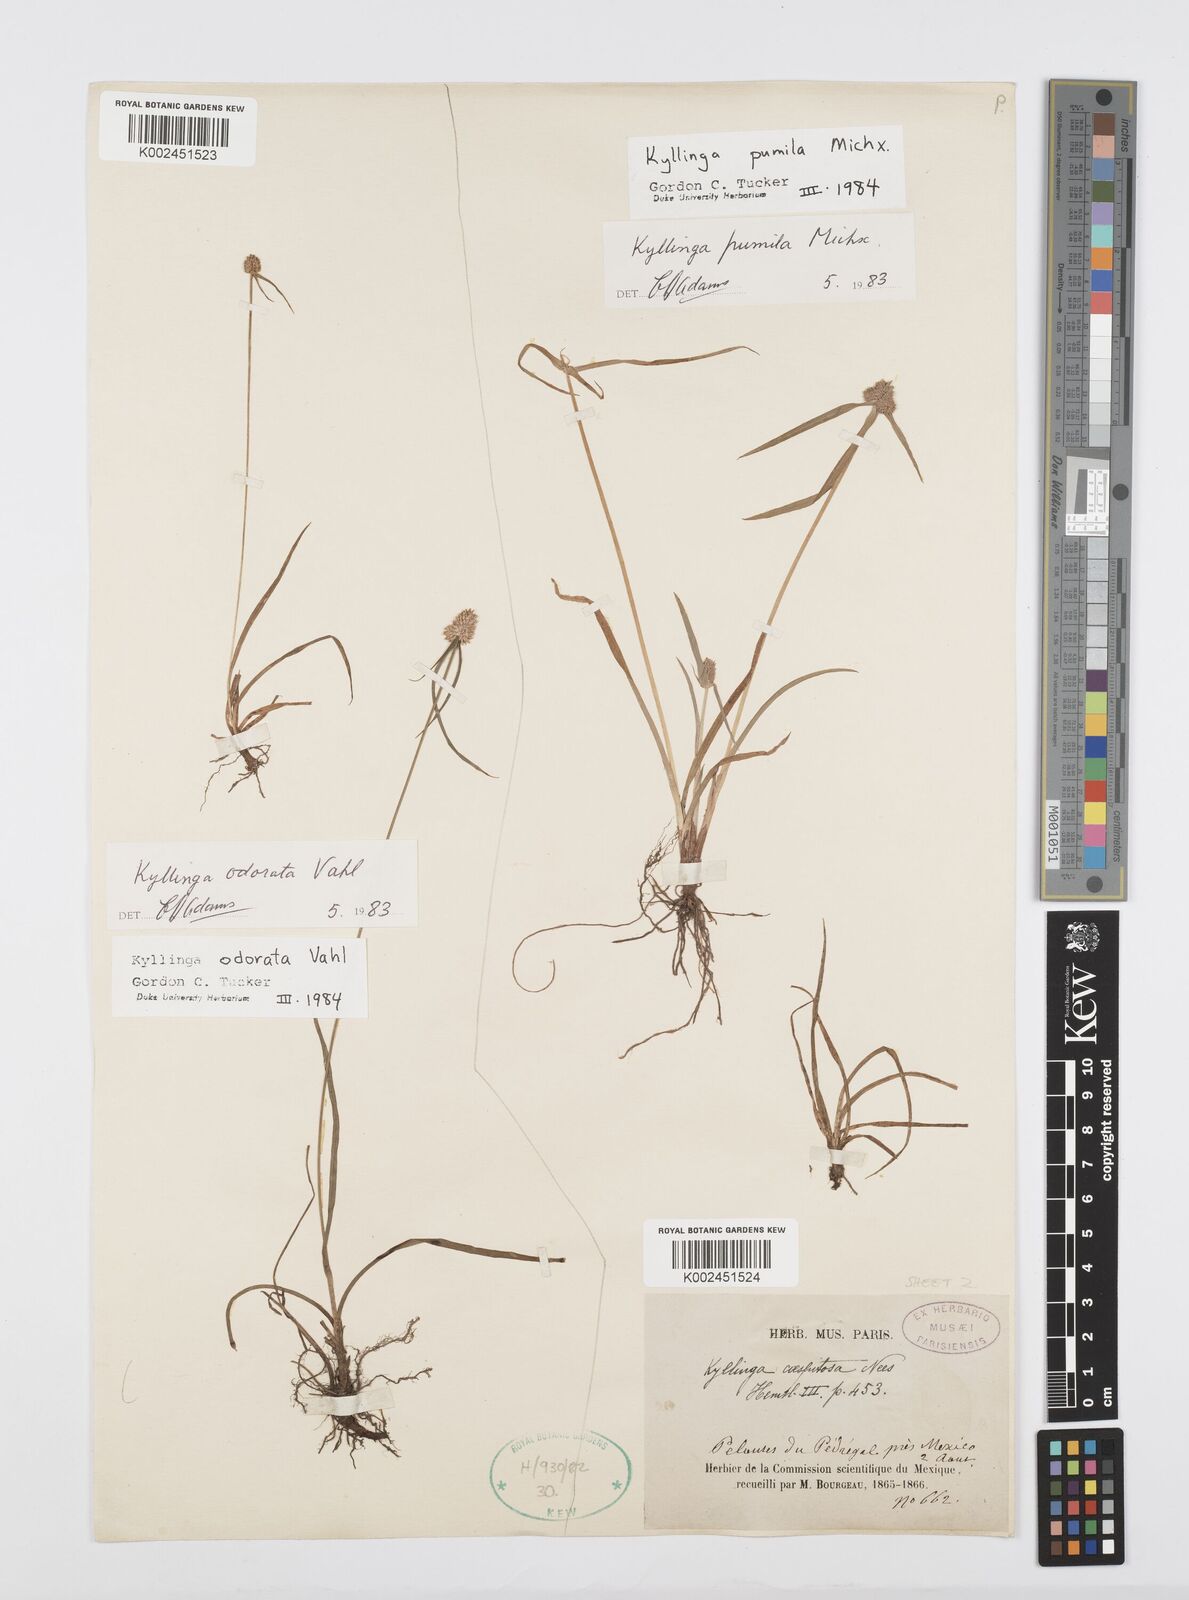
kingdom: Plantae
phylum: Tracheophyta
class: Liliopsida
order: Poales
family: Cyperaceae
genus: Cyperus
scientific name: Cyperus hortensis
